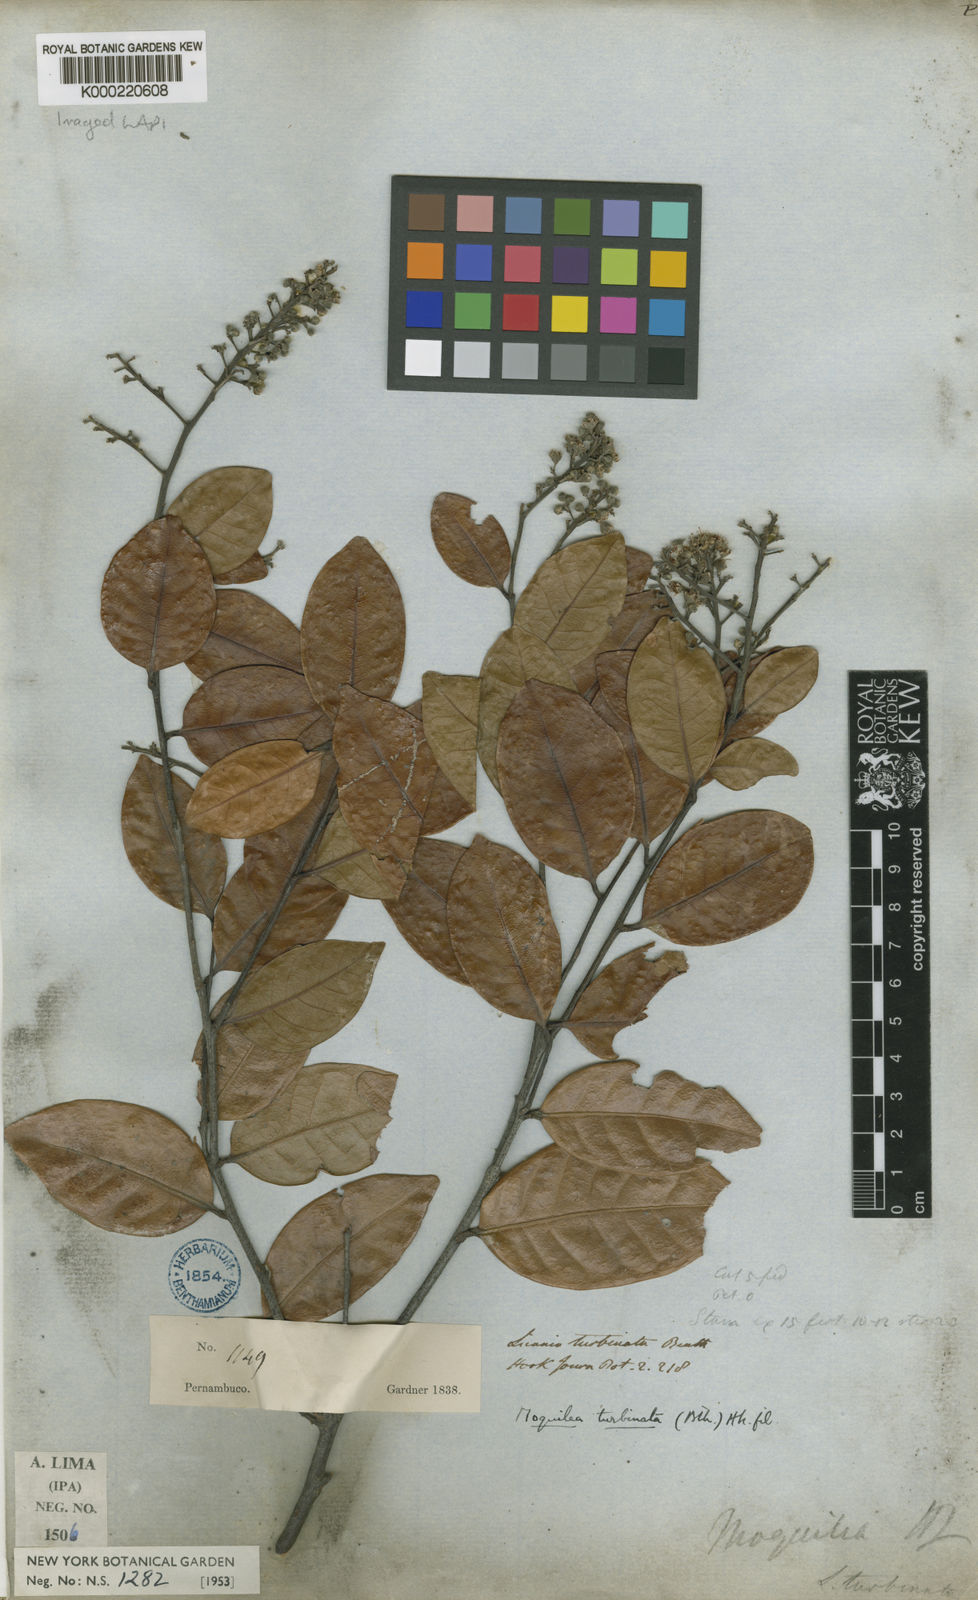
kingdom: Plantae
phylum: Tracheophyta
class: Magnoliopsida
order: Malpighiales
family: Chrysobalanaceae
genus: Leptobalanus
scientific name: Leptobalanus turbinatus
